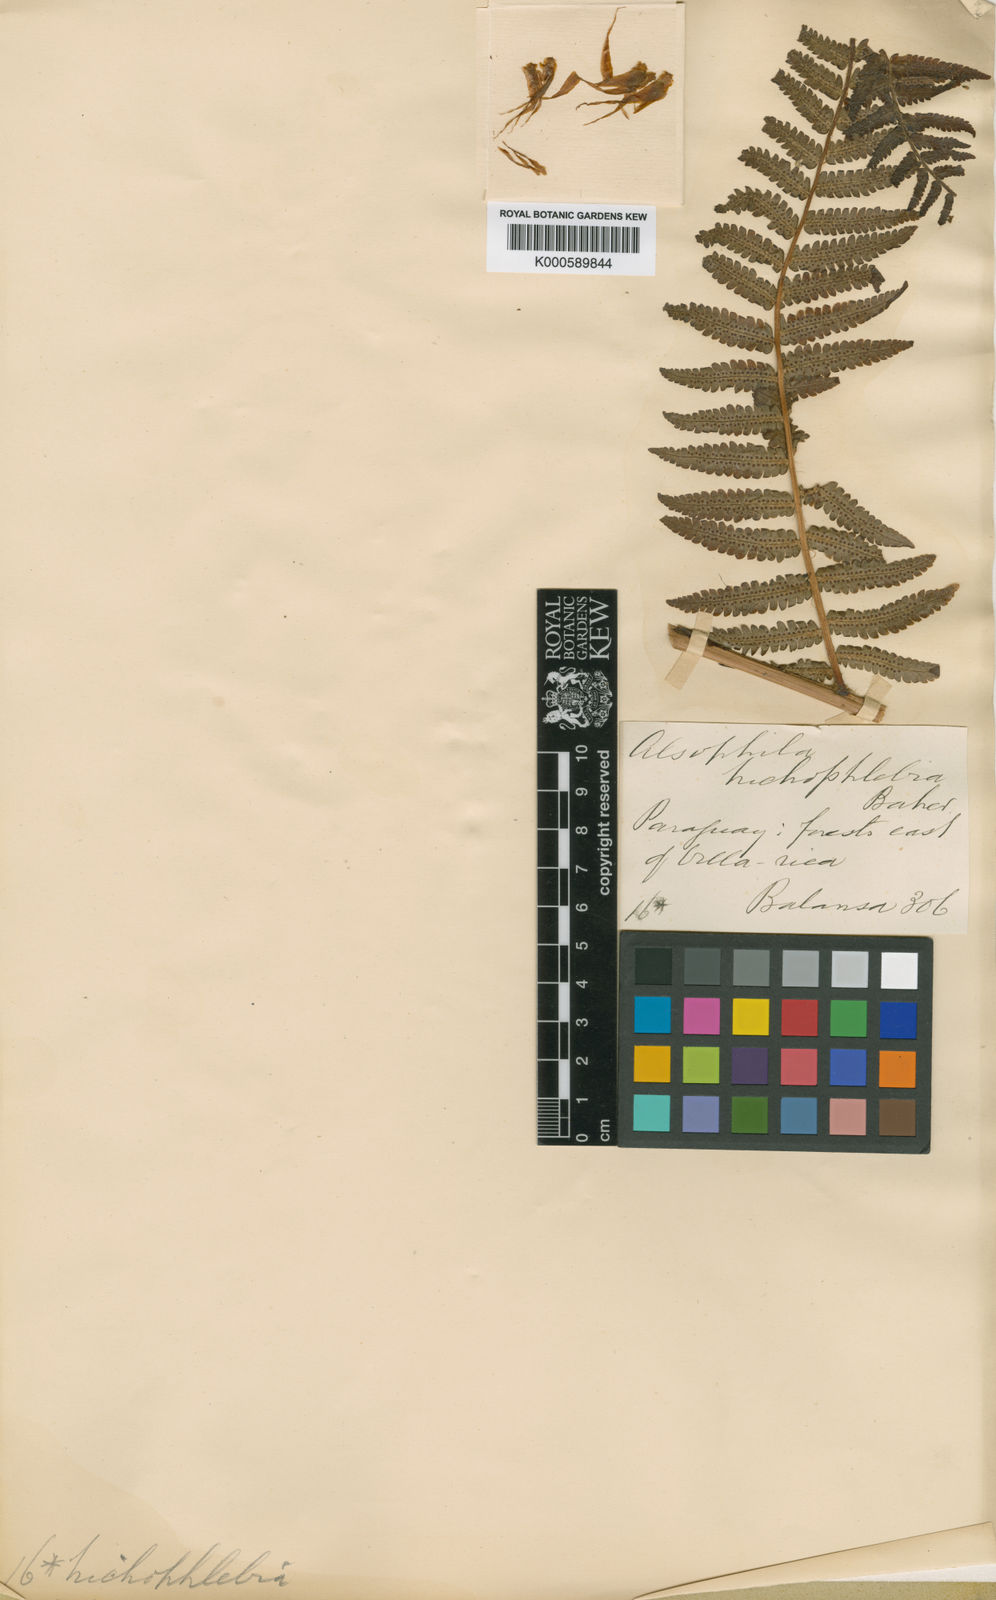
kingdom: Plantae
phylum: Tracheophyta
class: Polypodiopsida
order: Cyatheales
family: Cyatheaceae
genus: Cyathea
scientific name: Cyathea atrovirens
